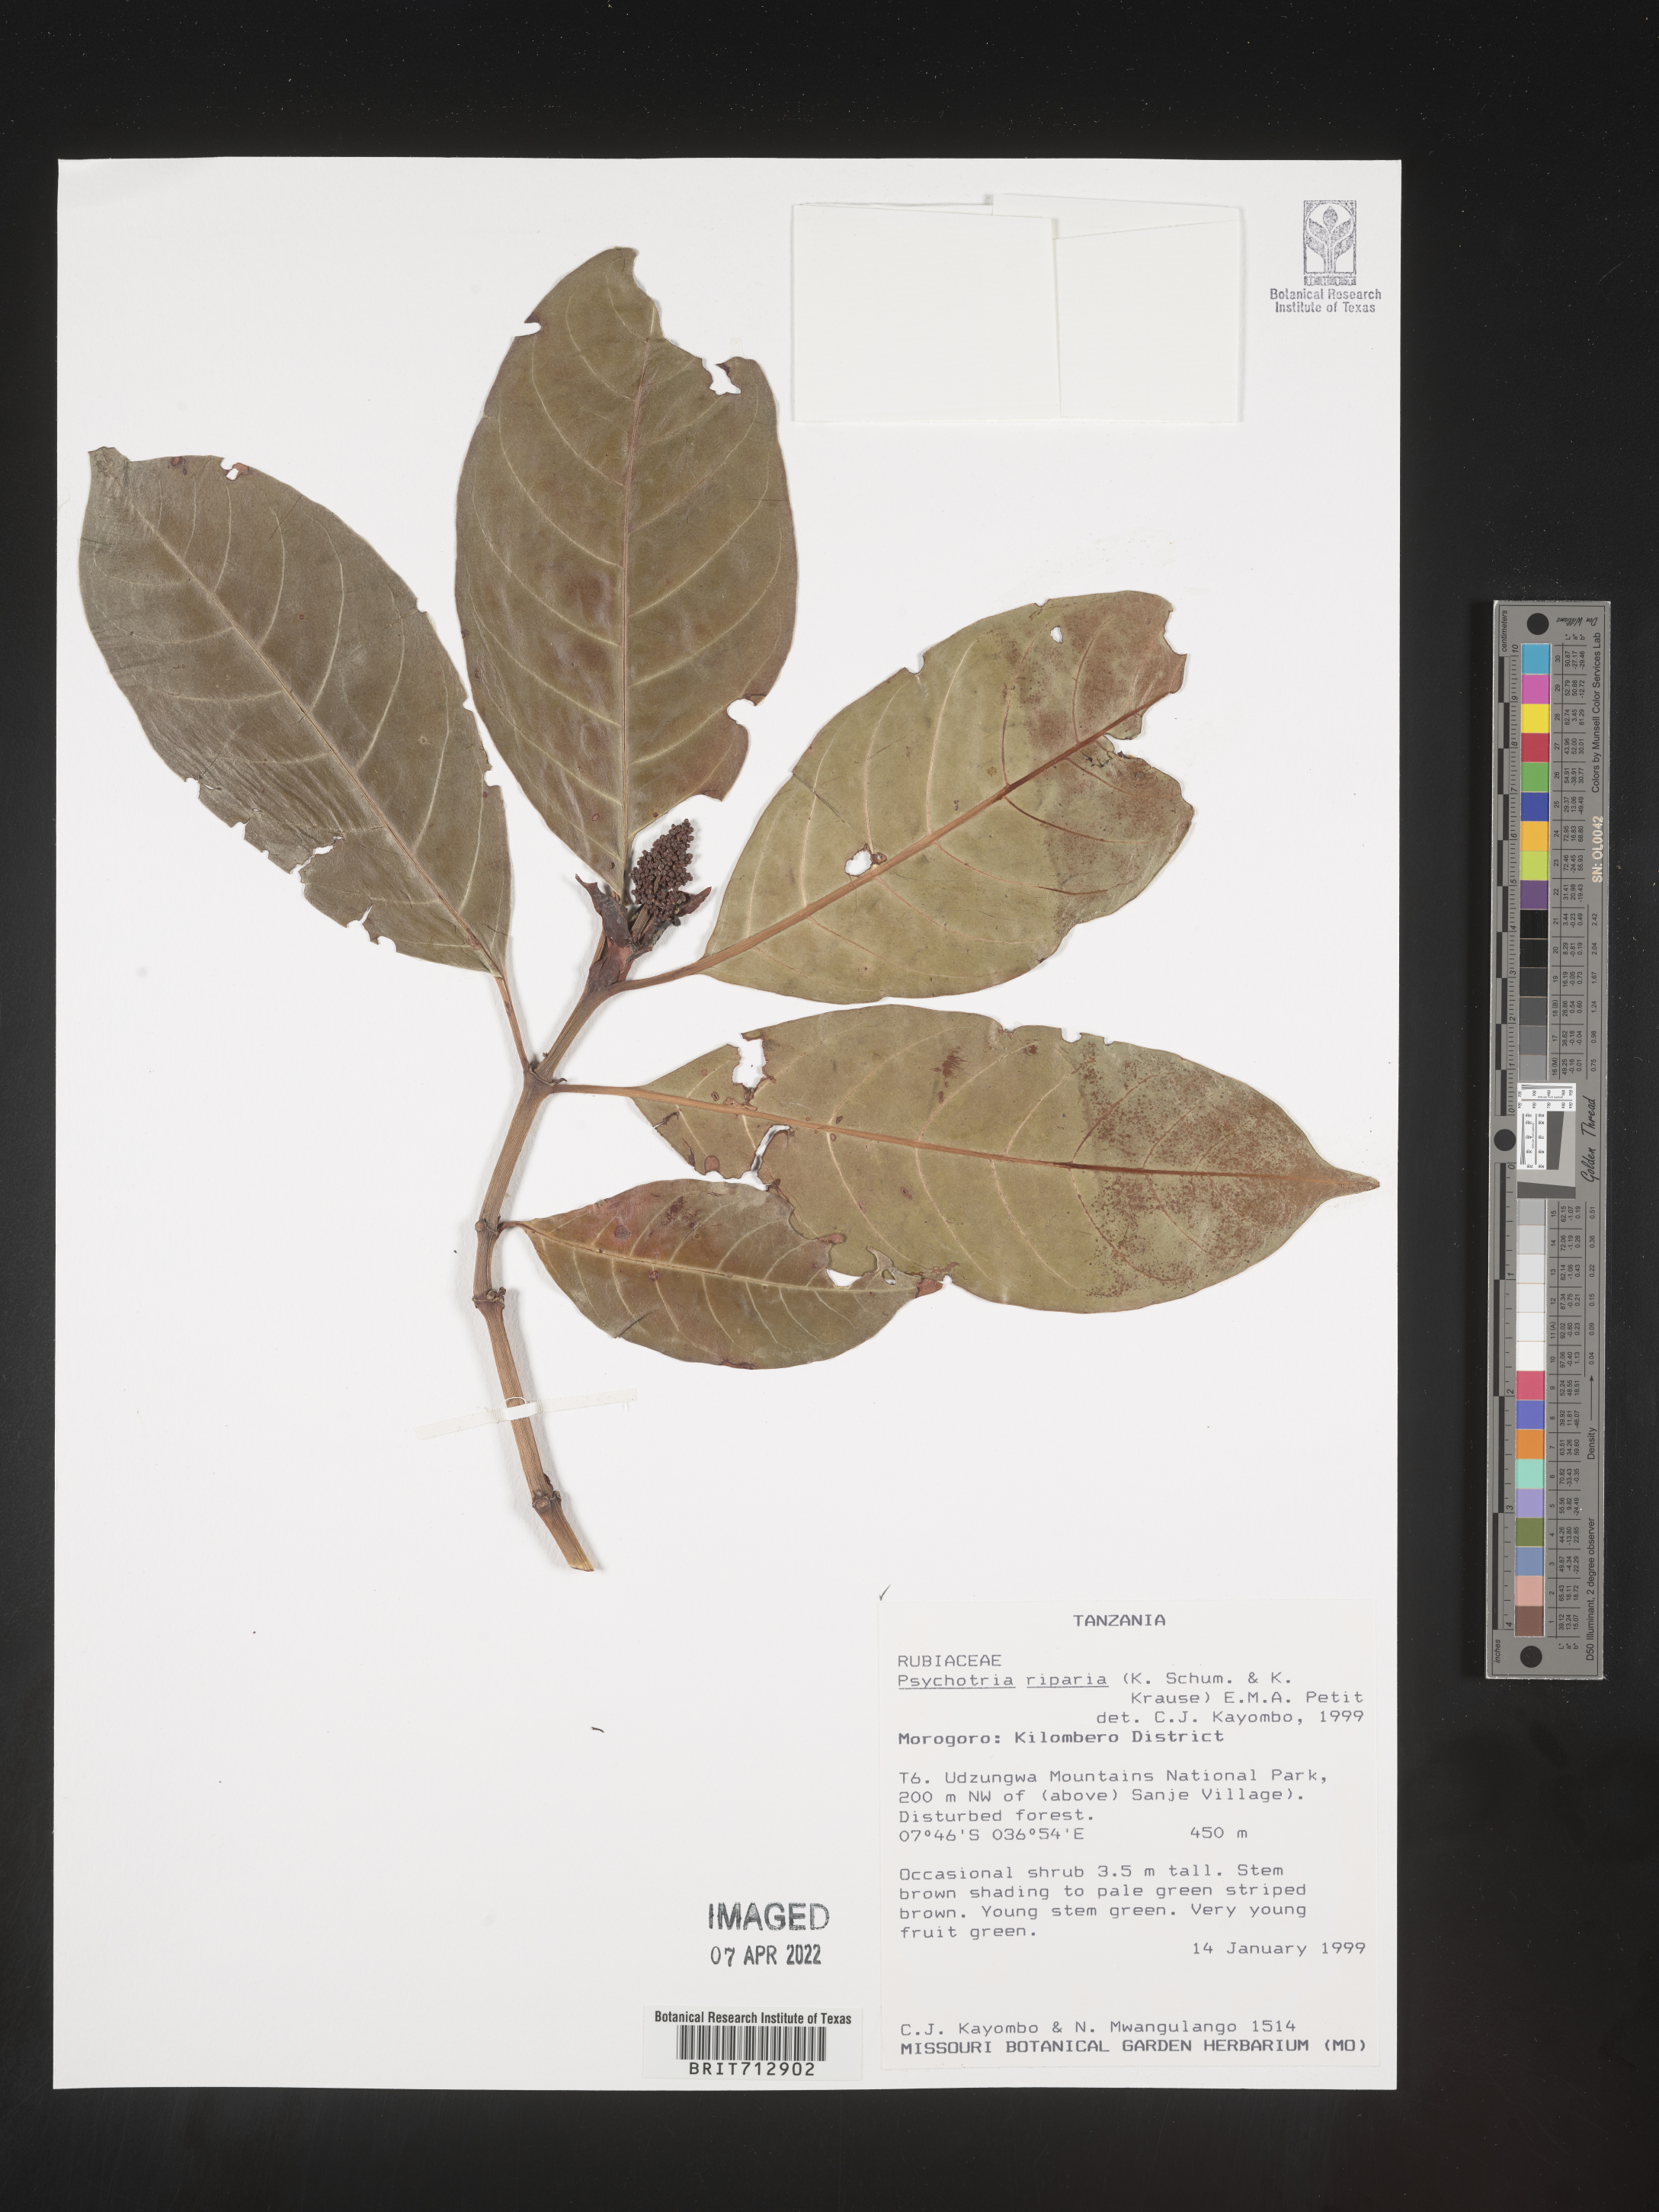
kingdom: Plantae
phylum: Tracheophyta
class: Magnoliopsida
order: Gentianales
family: Rubiaceae
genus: Psychotria
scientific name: Psychotria
